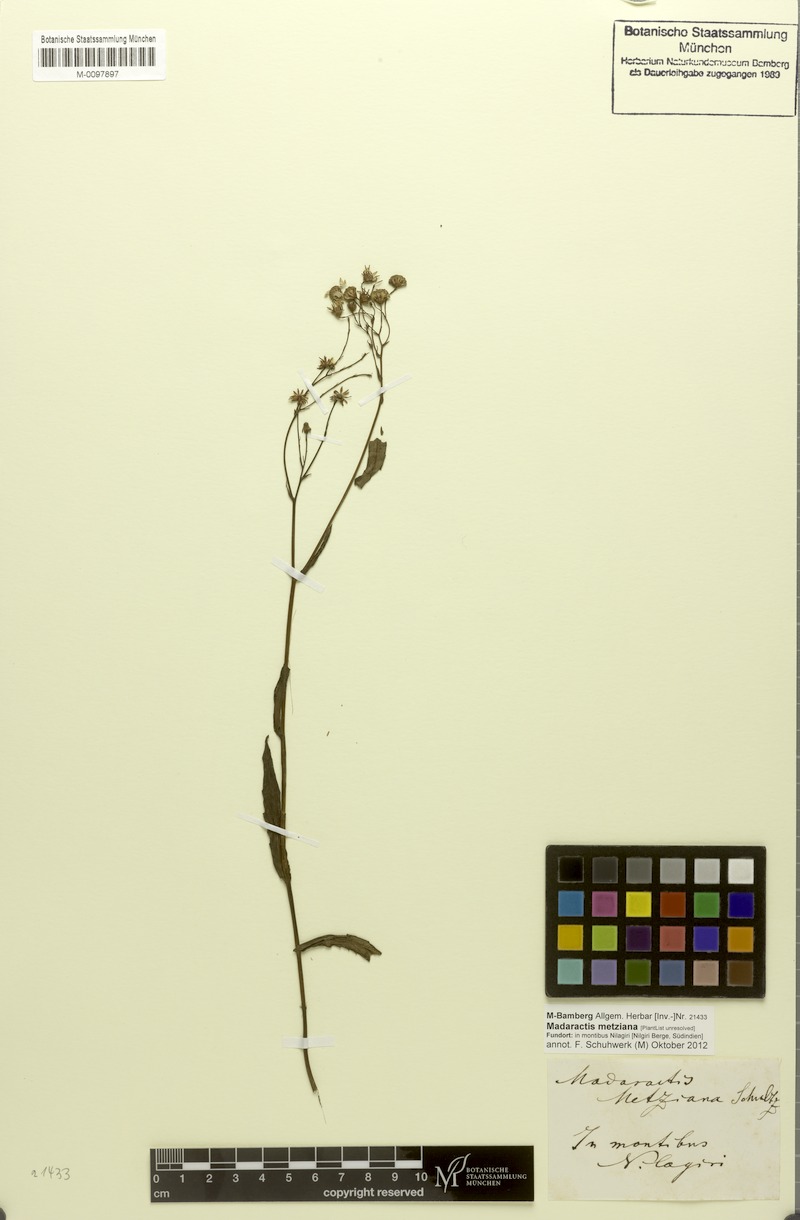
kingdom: Plantae
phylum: Tracheophyta
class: Magnoliopsida
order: Asterales
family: Asteraceae
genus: Senecio
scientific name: Senecio wightii
